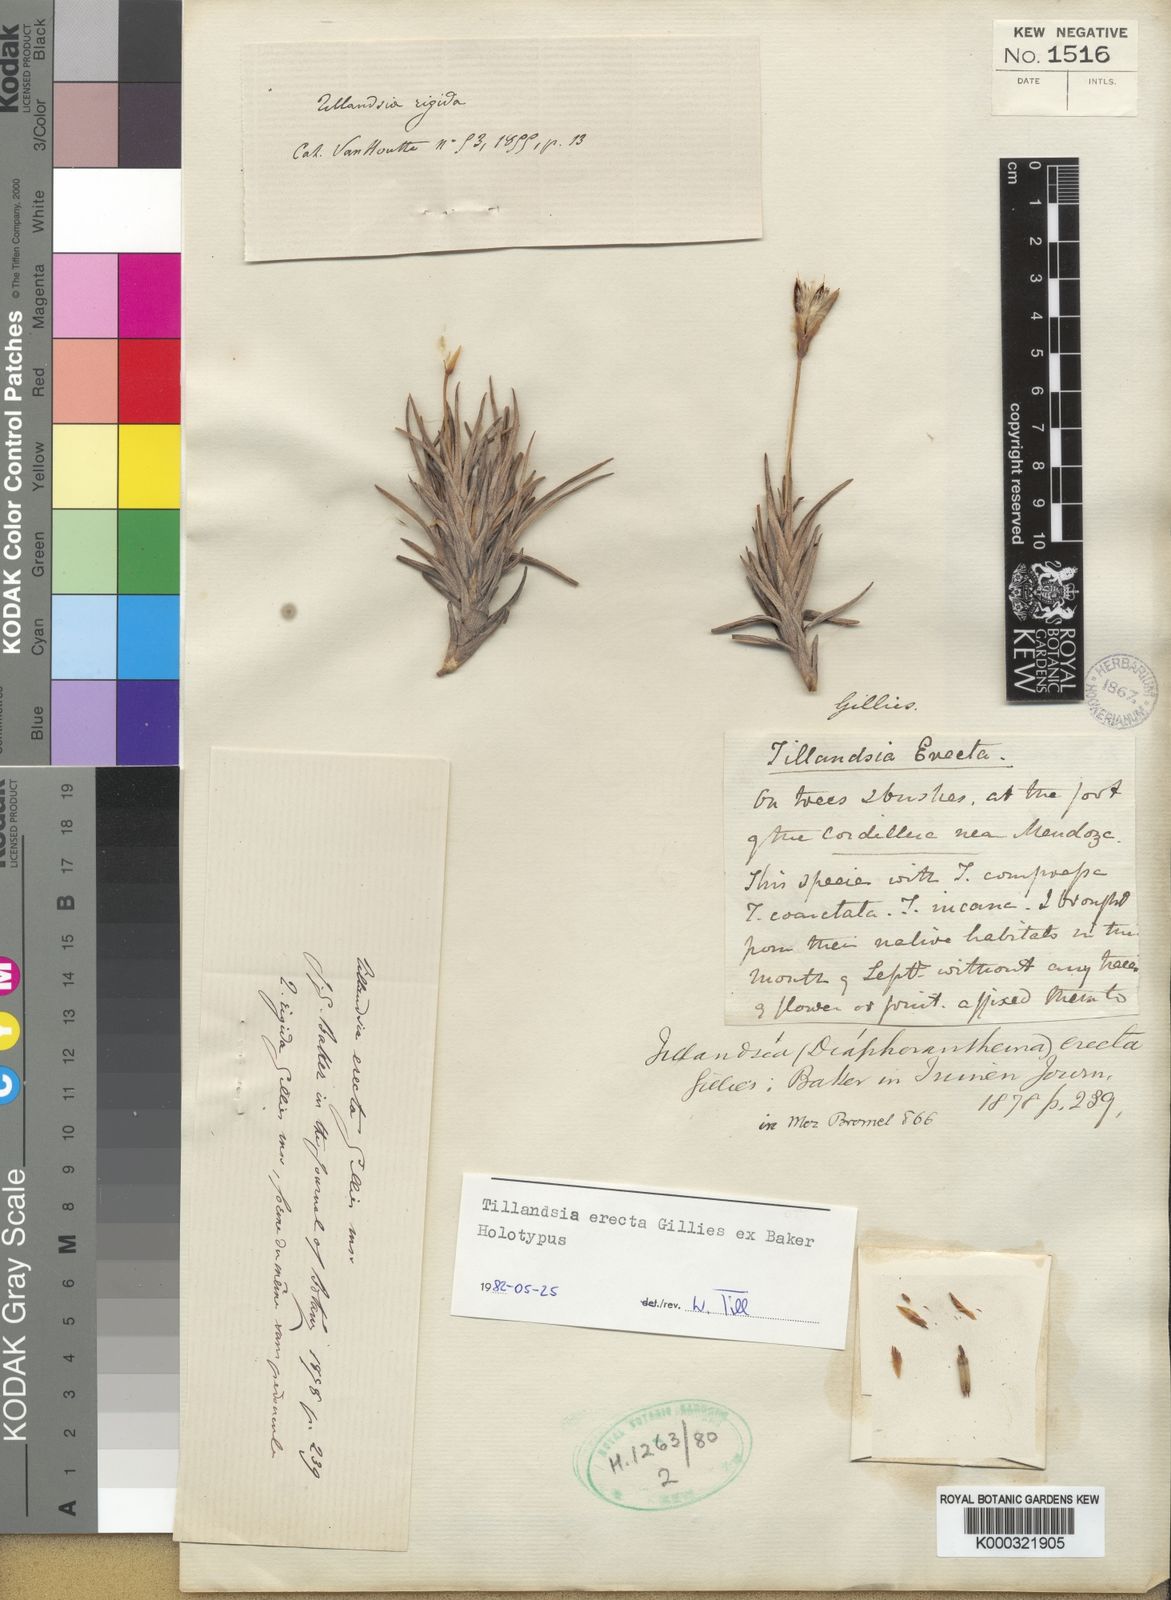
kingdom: Plantae
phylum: Tracheophyta
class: Liliopsida
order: Poales
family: Bromeliaceae
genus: Tillandsia
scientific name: Tillandsia erecta
